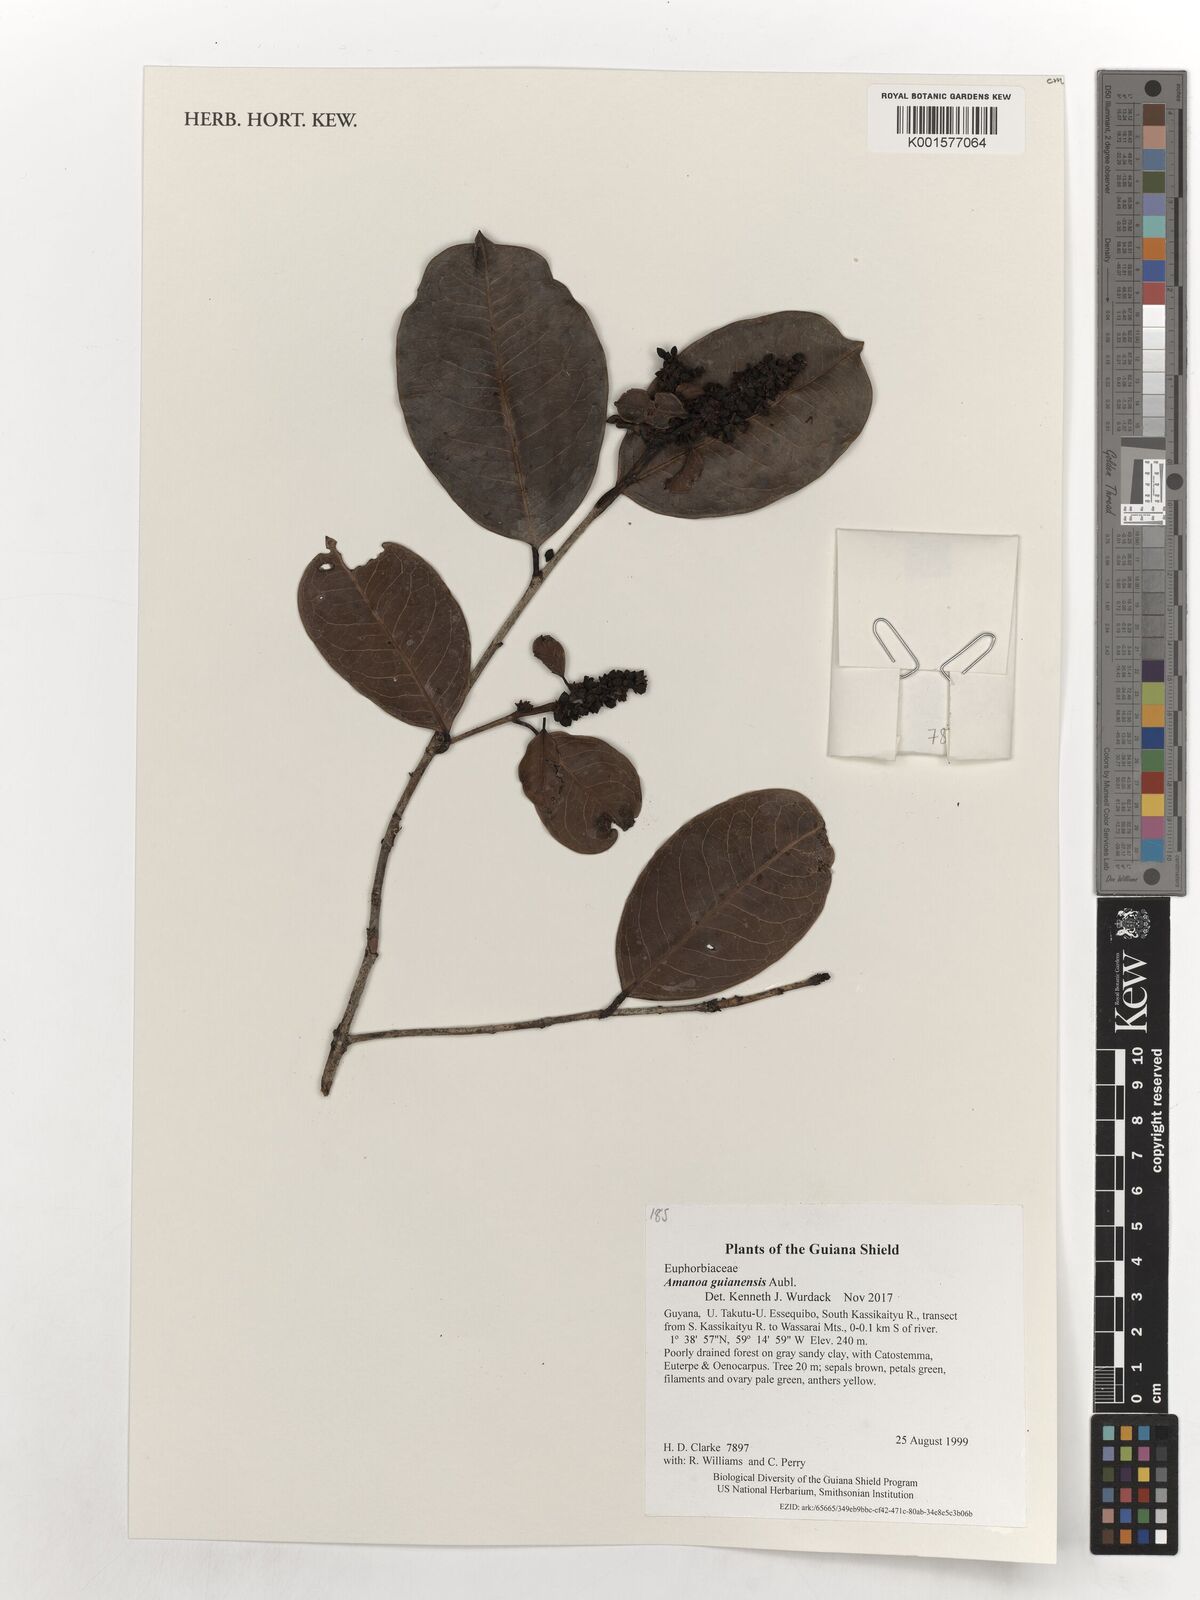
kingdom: Plantae
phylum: Tracheophyta
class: Magnoliopsida
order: Malpighiales
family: Phyllanthaceae
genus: Amanoa
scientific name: Amanoa guianensis
